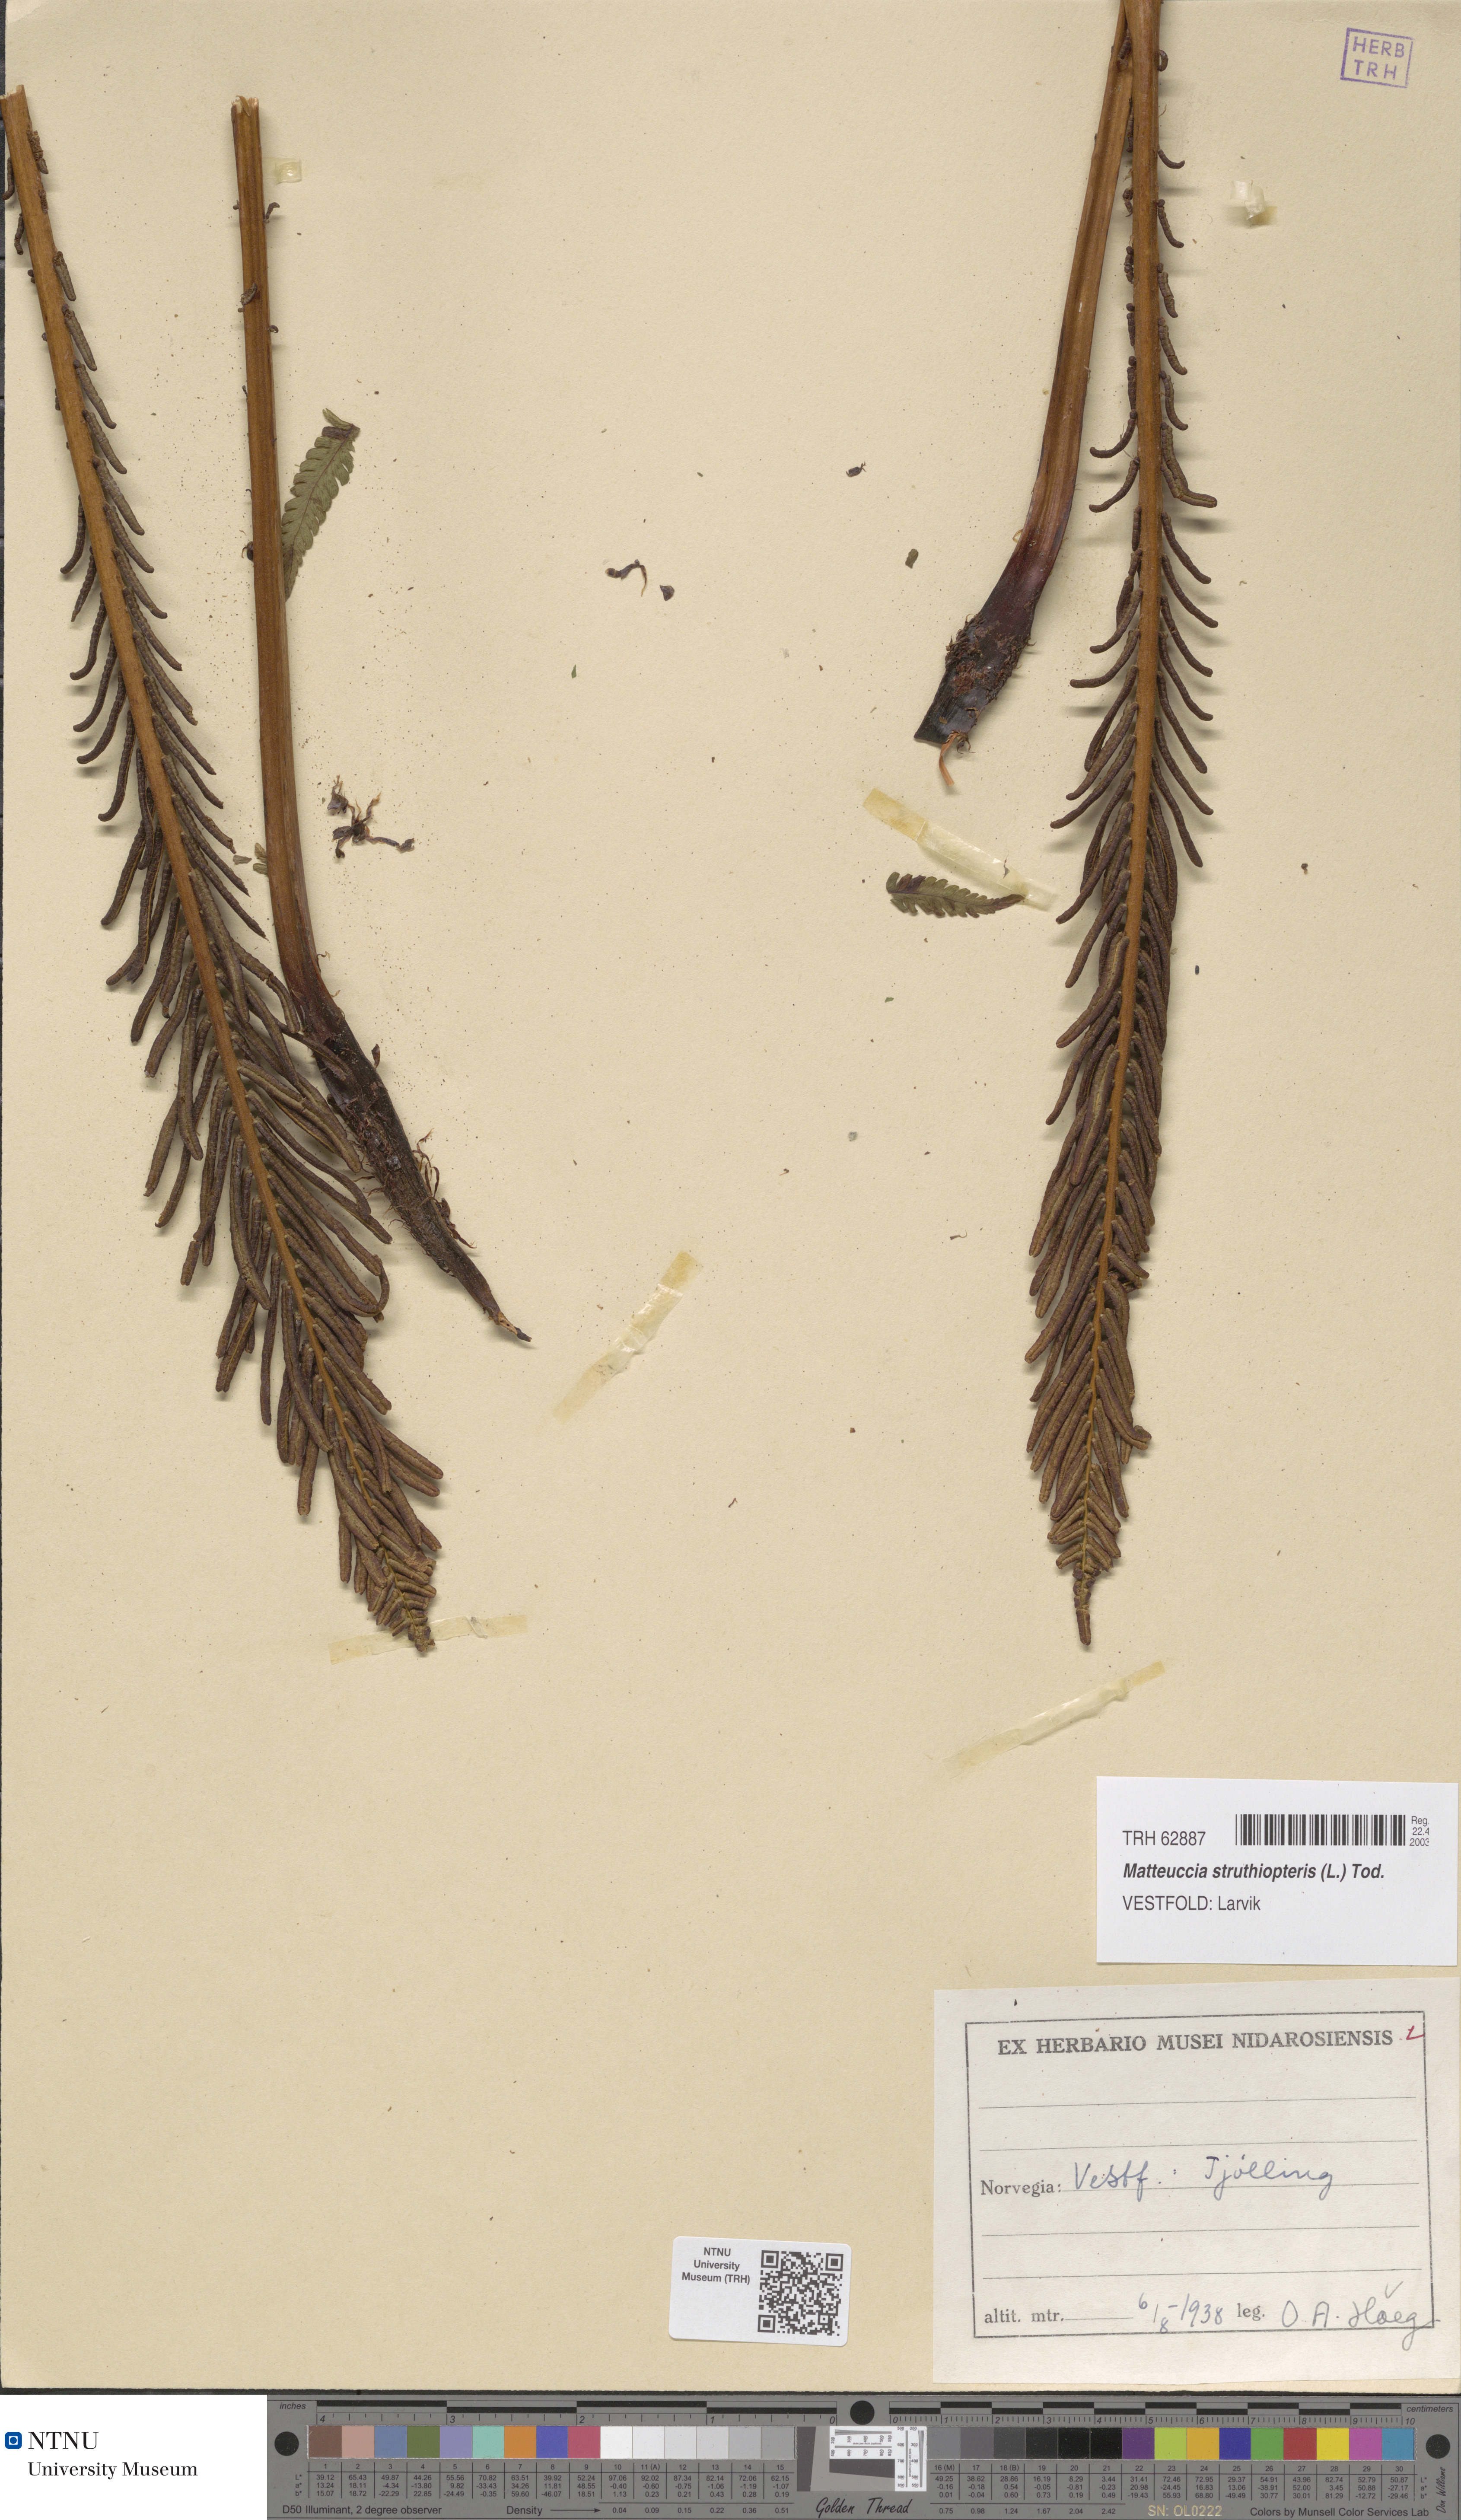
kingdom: Plantae
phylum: Tracheophyta
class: Polypodiopsida
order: Polypodiales
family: Onocleaceae
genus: Matteuccia
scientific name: Matteuccia struthiopteris
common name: Ostrich fern
